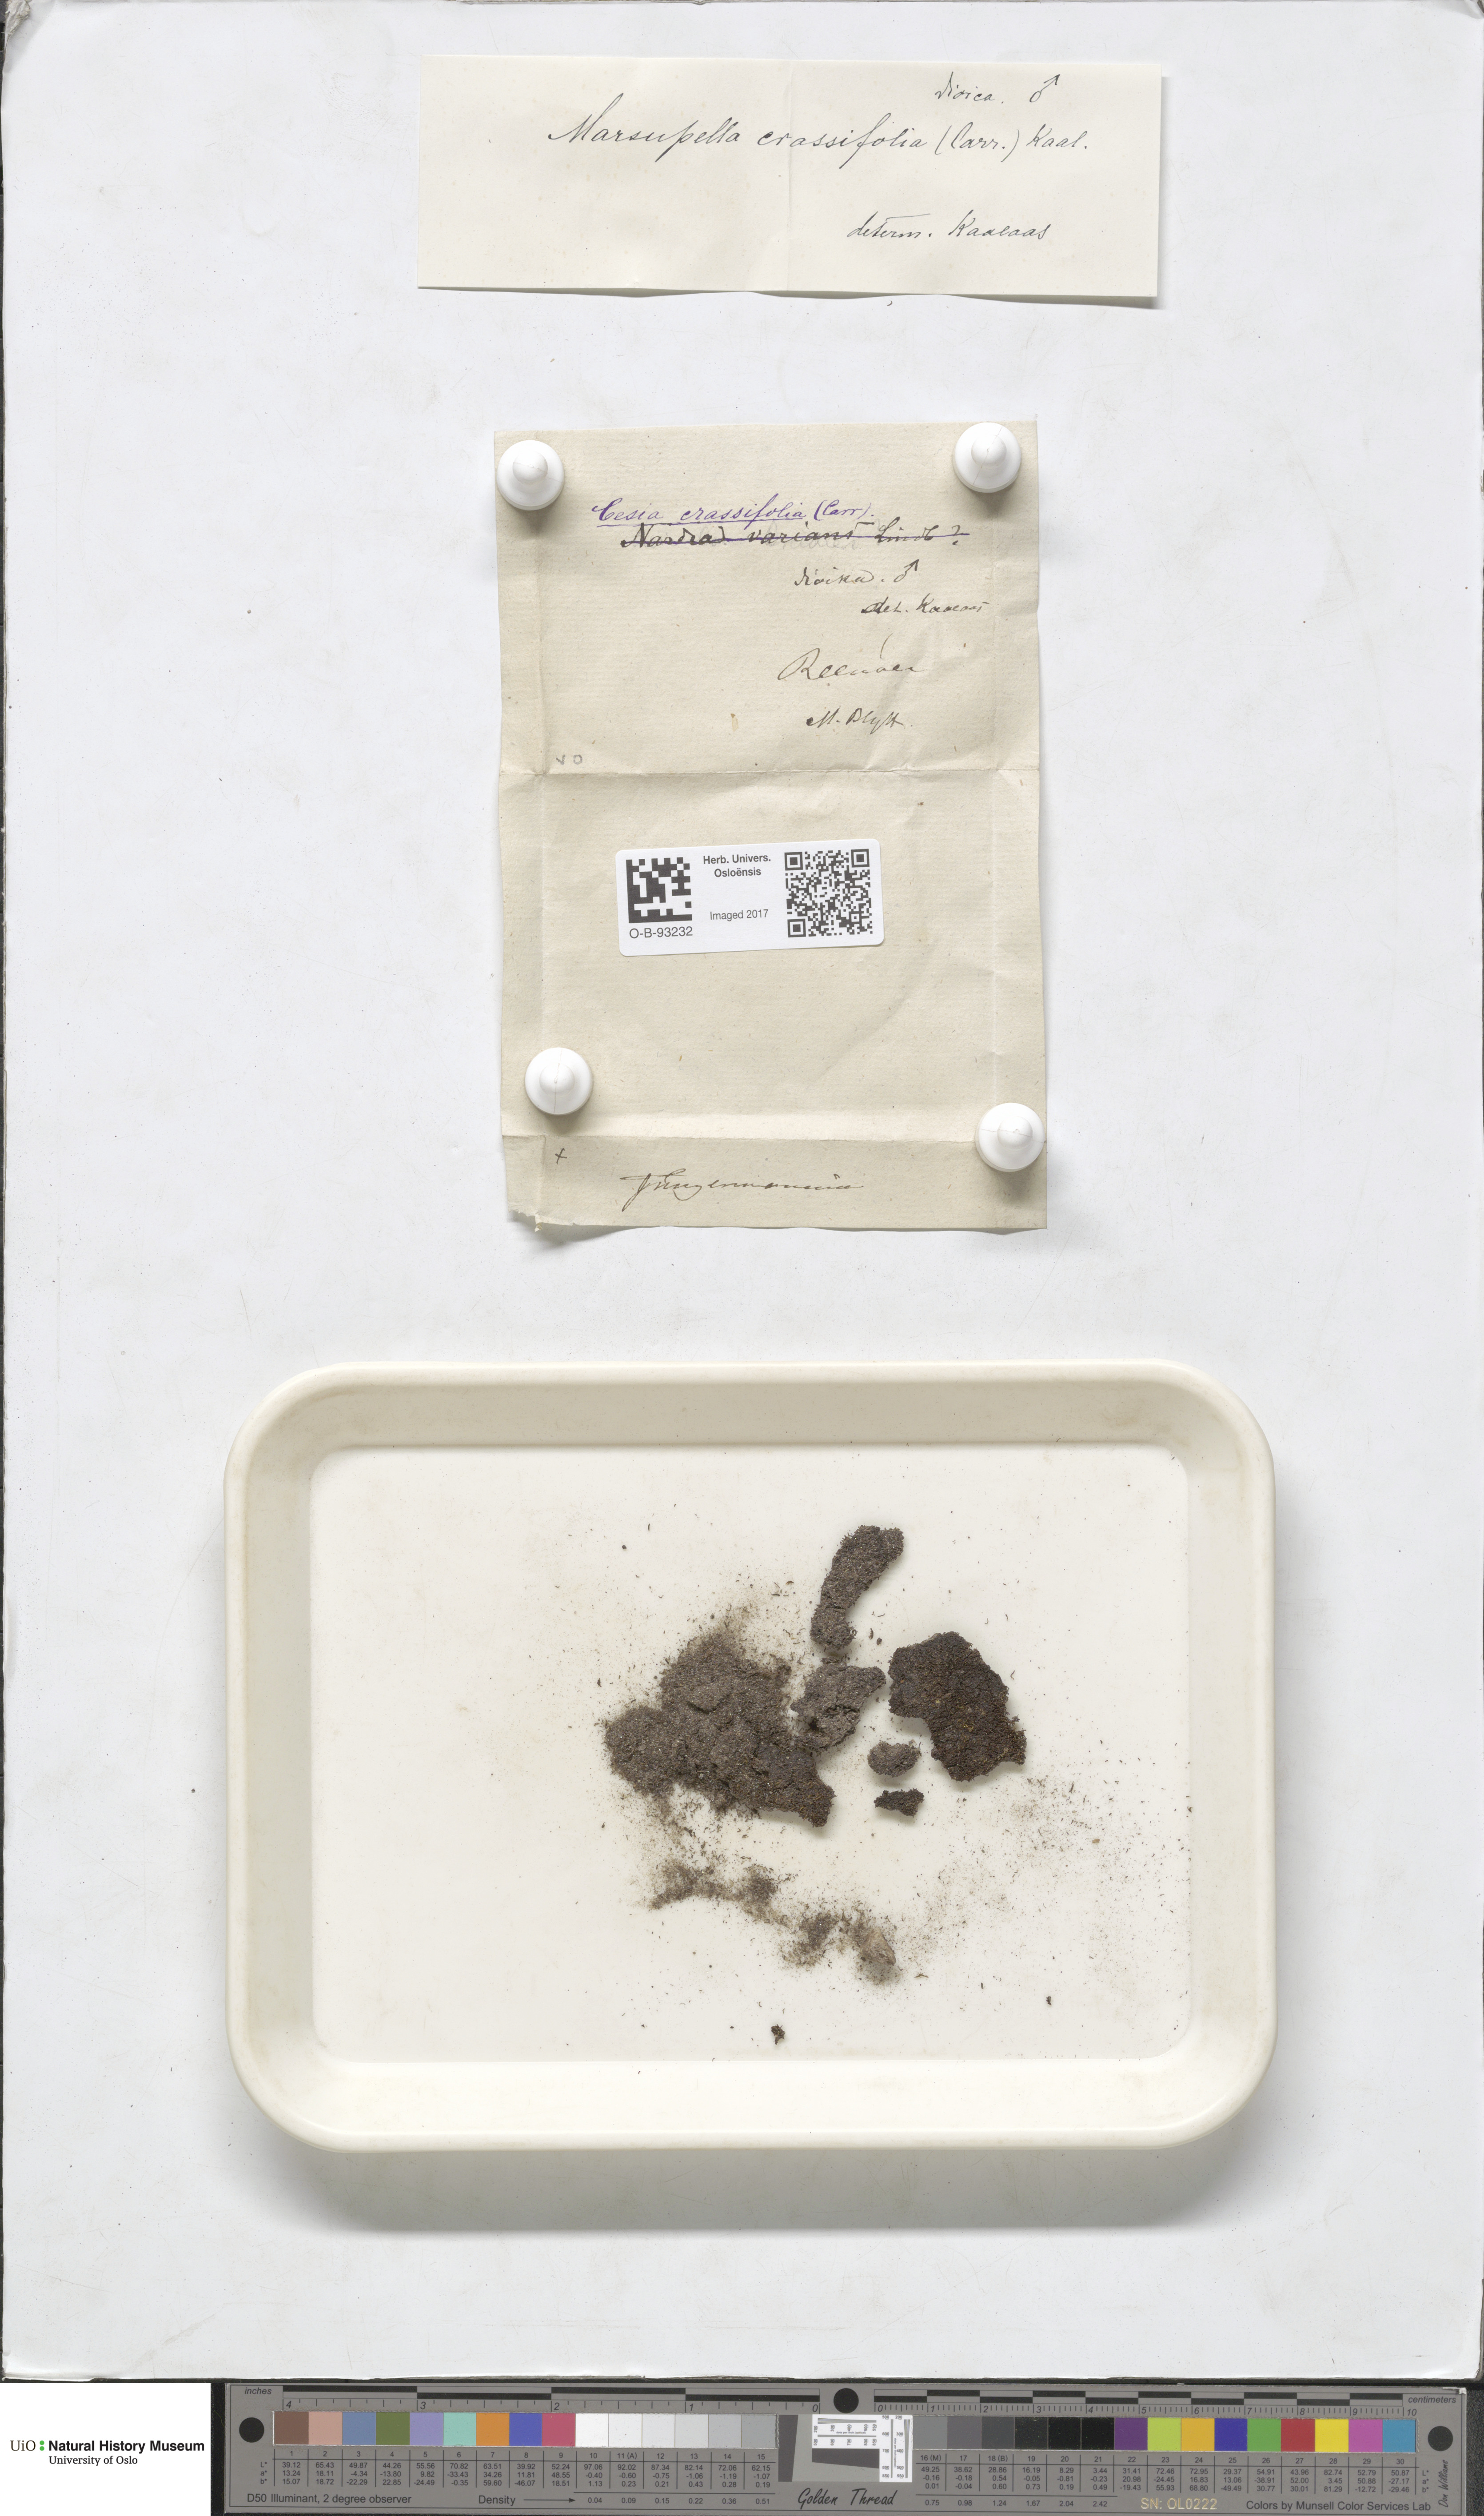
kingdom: Plantae
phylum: Marchantiophyta
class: Jungermanniopsida
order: Jungermanniales
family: Gymnomitriaceae
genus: Gymnomitrion
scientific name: Gymnomitrion brevissimum
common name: Snow rustwort
